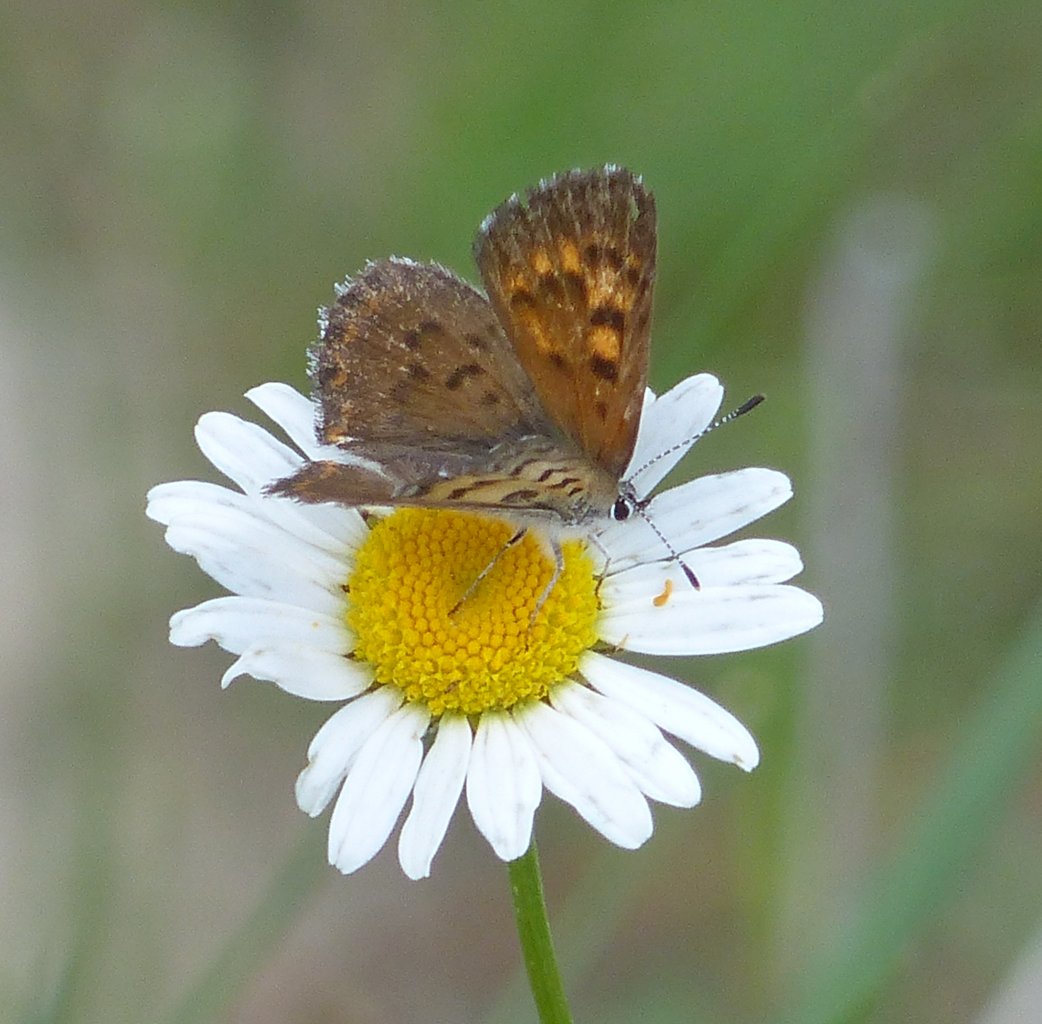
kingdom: Animalia
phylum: Arthropoda
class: Insecta
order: Lepidoptera
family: Lycaenidae
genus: Lycaena
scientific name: Lycaena mariposa
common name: Mariposa Copper
